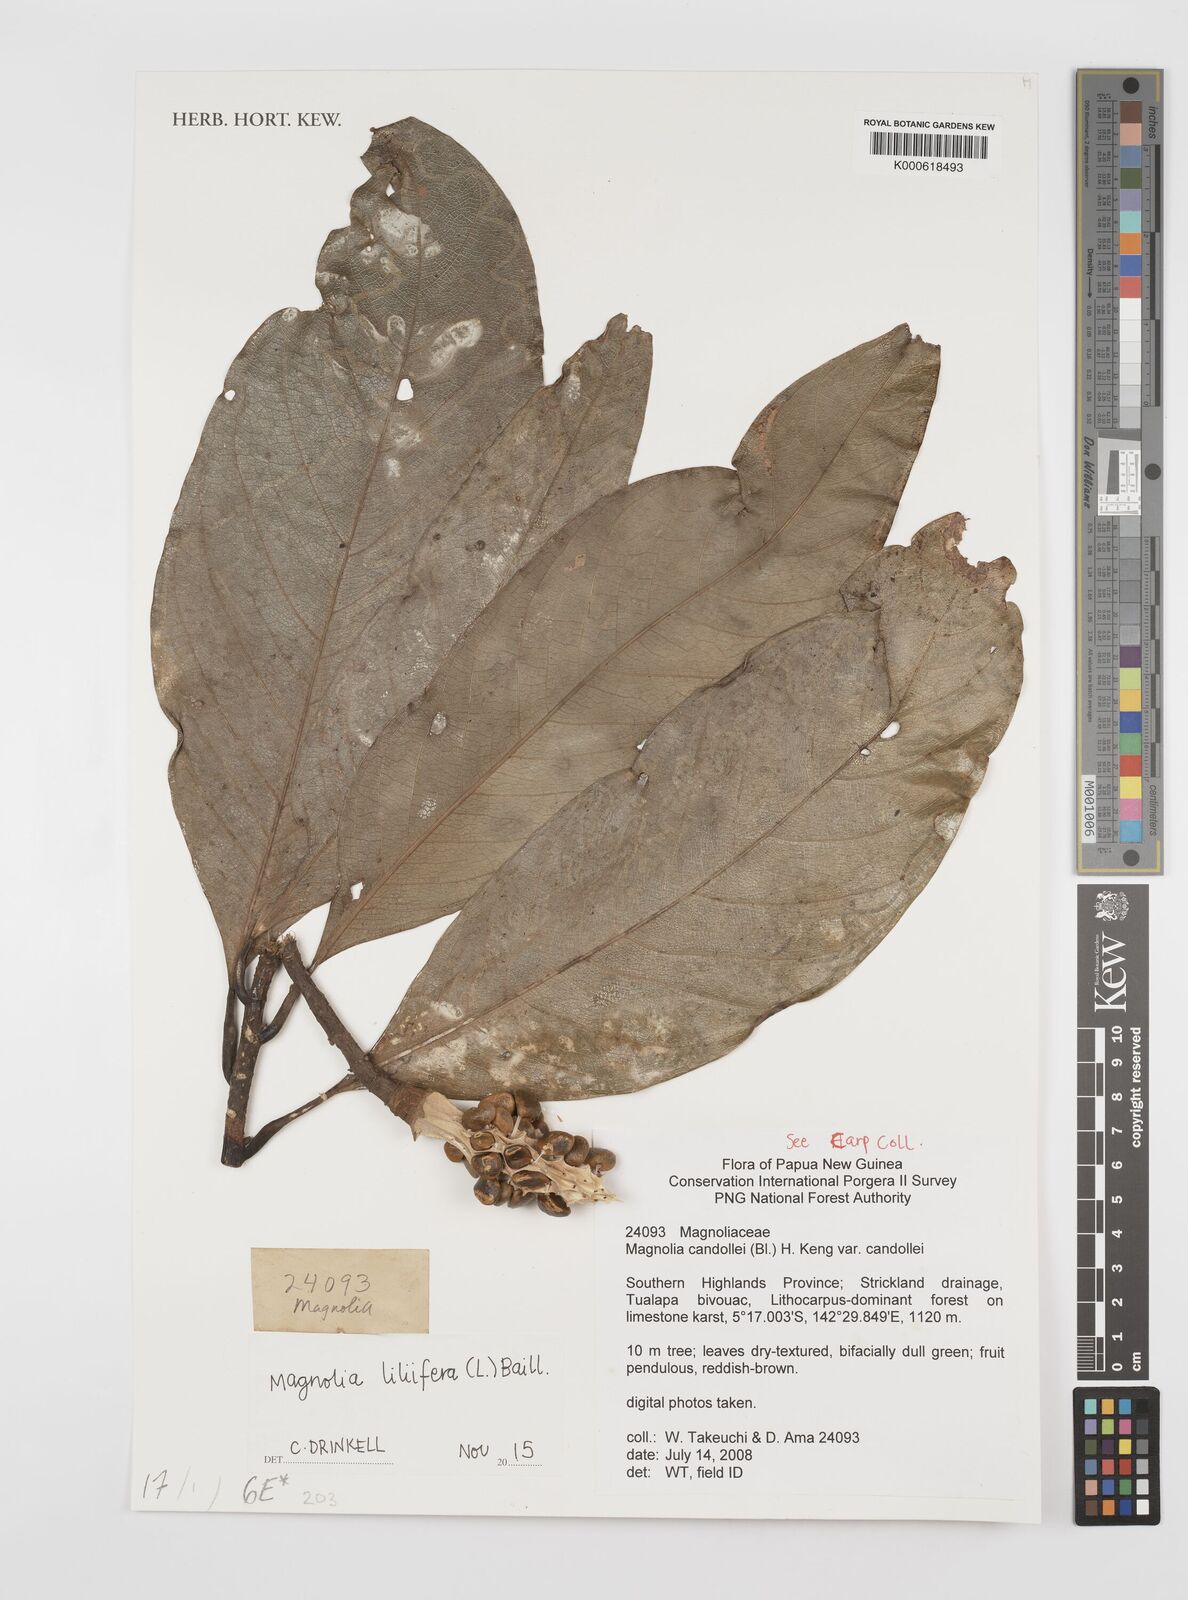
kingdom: Plantae
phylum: Tracheophyta
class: Magnoliopsida
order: Magnoliales
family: Magnoliaceae
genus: Magnolia
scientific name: Magnolia liliifera
